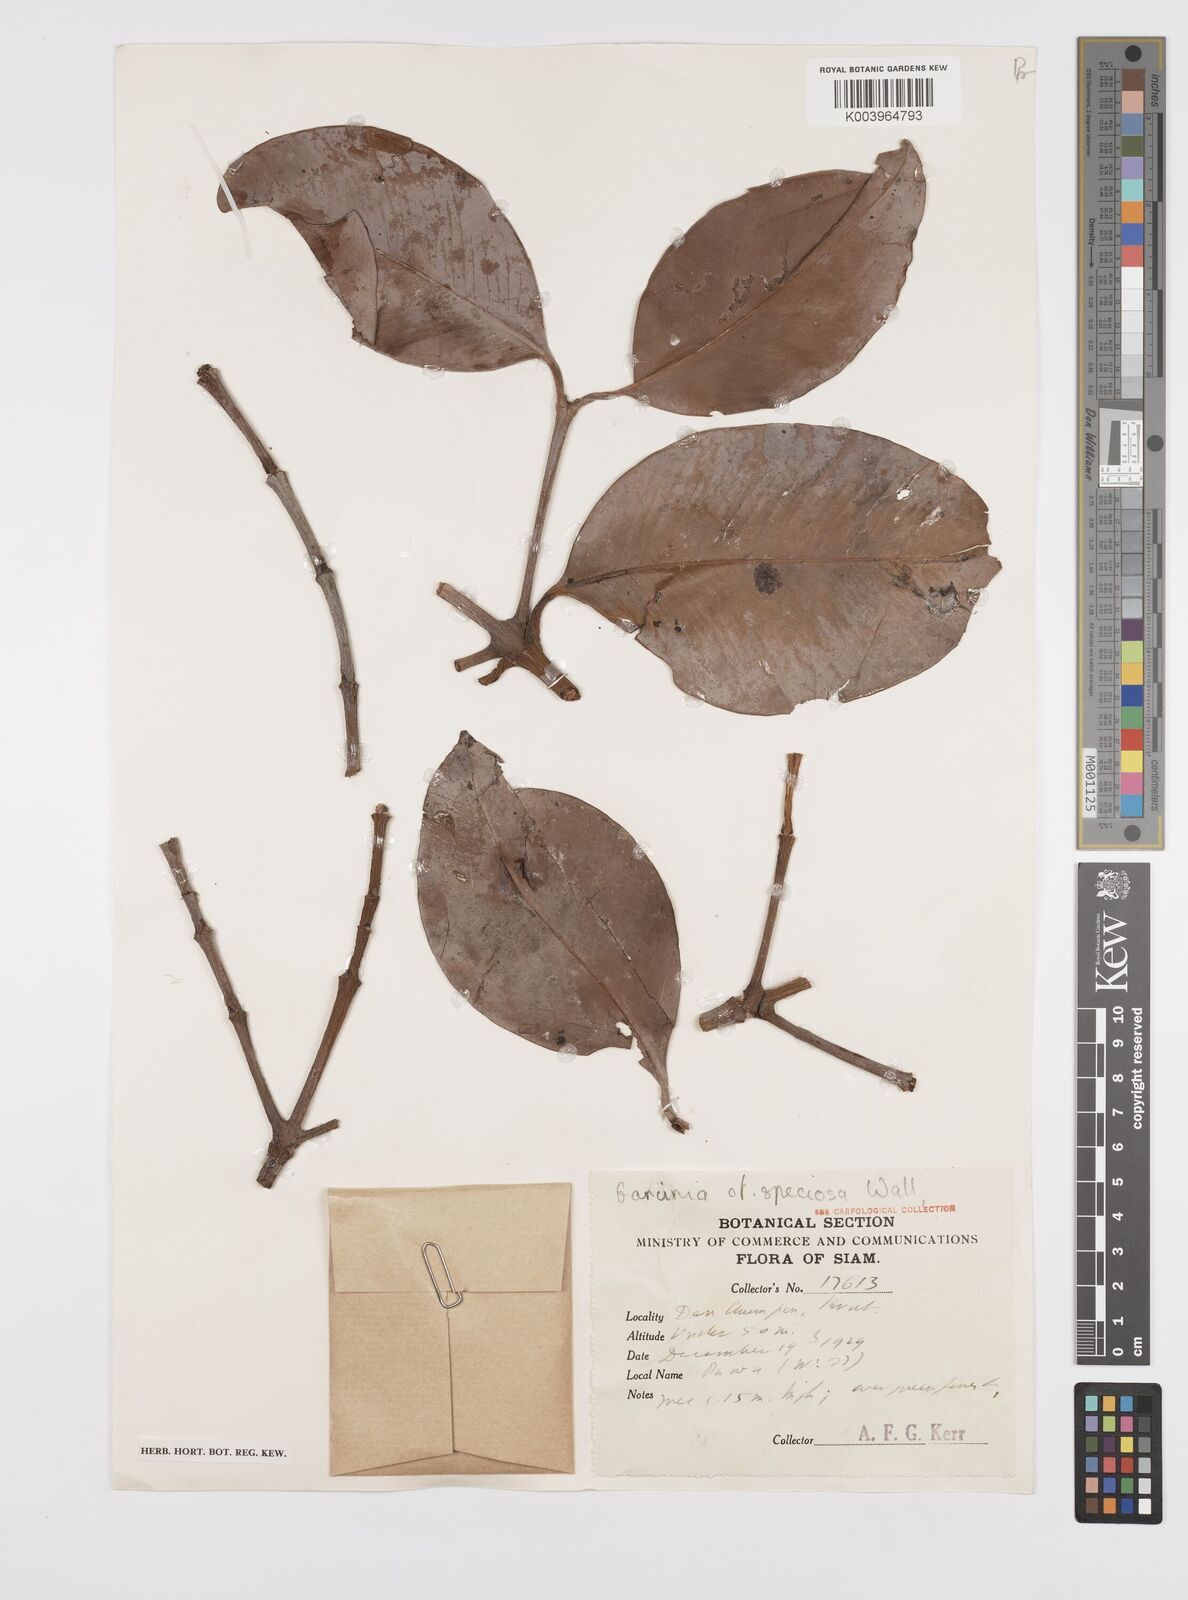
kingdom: Plantae
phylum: Tracheophyta
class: Magnoliopsida
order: Malpighiales
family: Clusiaceae
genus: Garcinia
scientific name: Garcinia celebica
